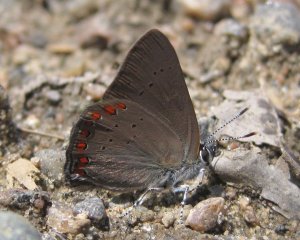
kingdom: Animalia
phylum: Arthropoda
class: Insecta
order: Lepidoptera
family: Lycaenidae
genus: Harkenclenus
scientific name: Harkenclenus titus
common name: Coral Hairstreak
